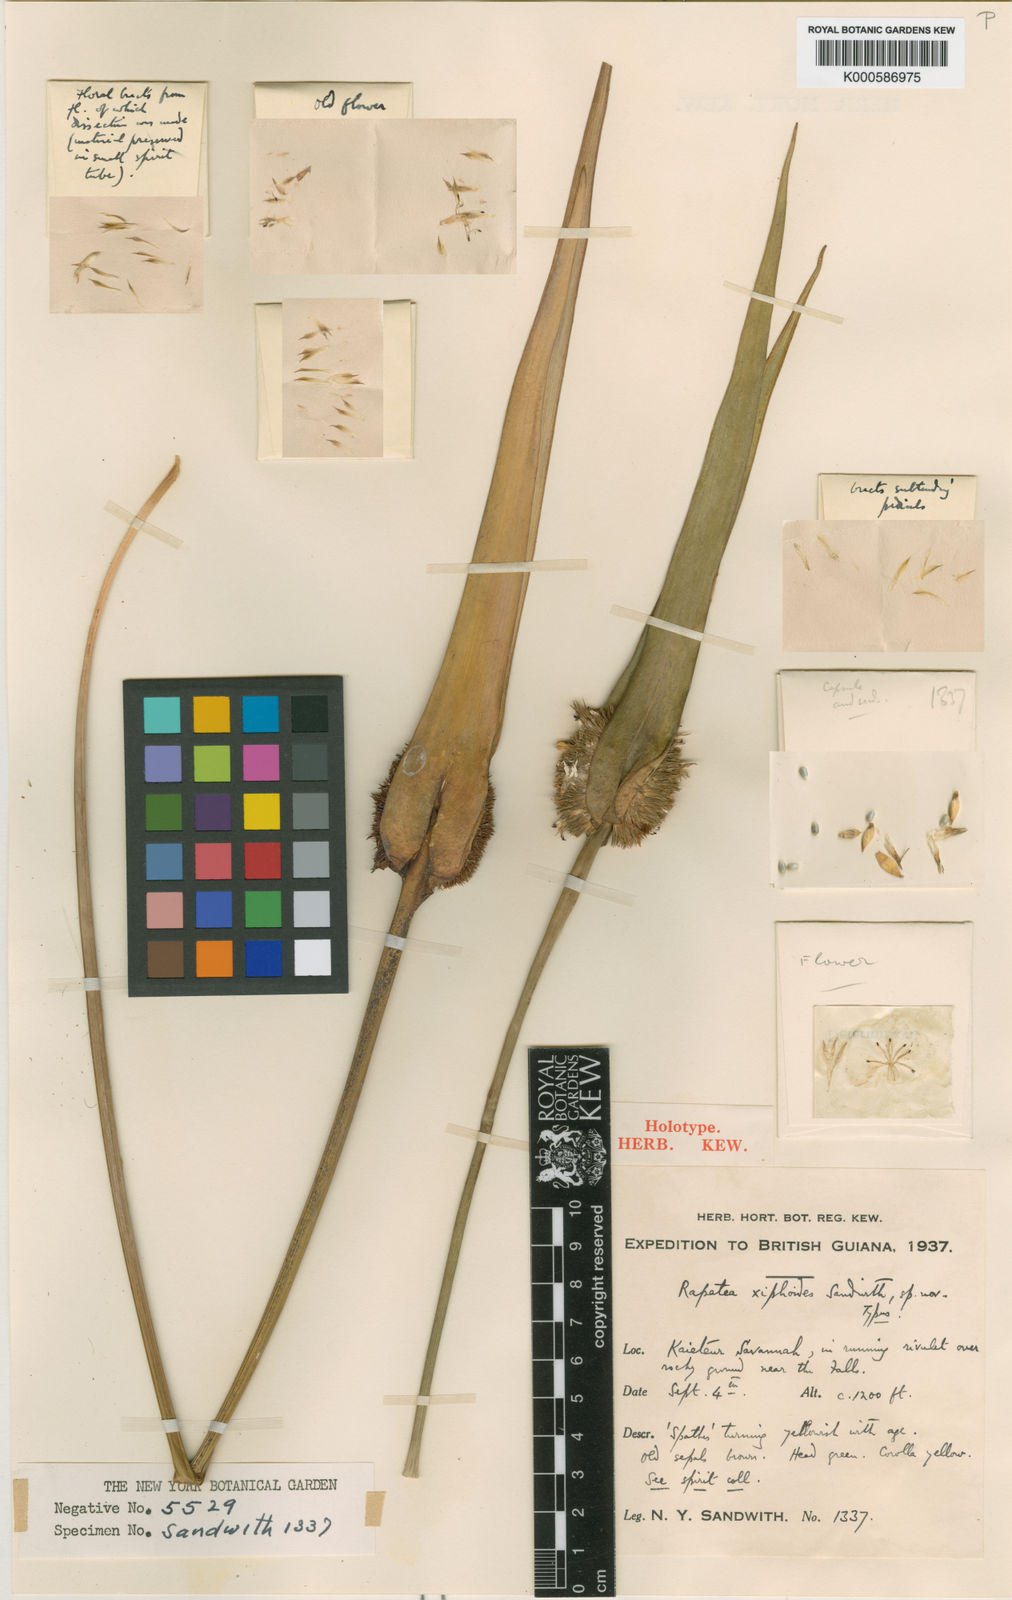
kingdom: Plantae
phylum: Tracheophyta
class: Liliopsida
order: Poales
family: Rapateaceae
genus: Rapatea
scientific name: Rapatea xiphoides
